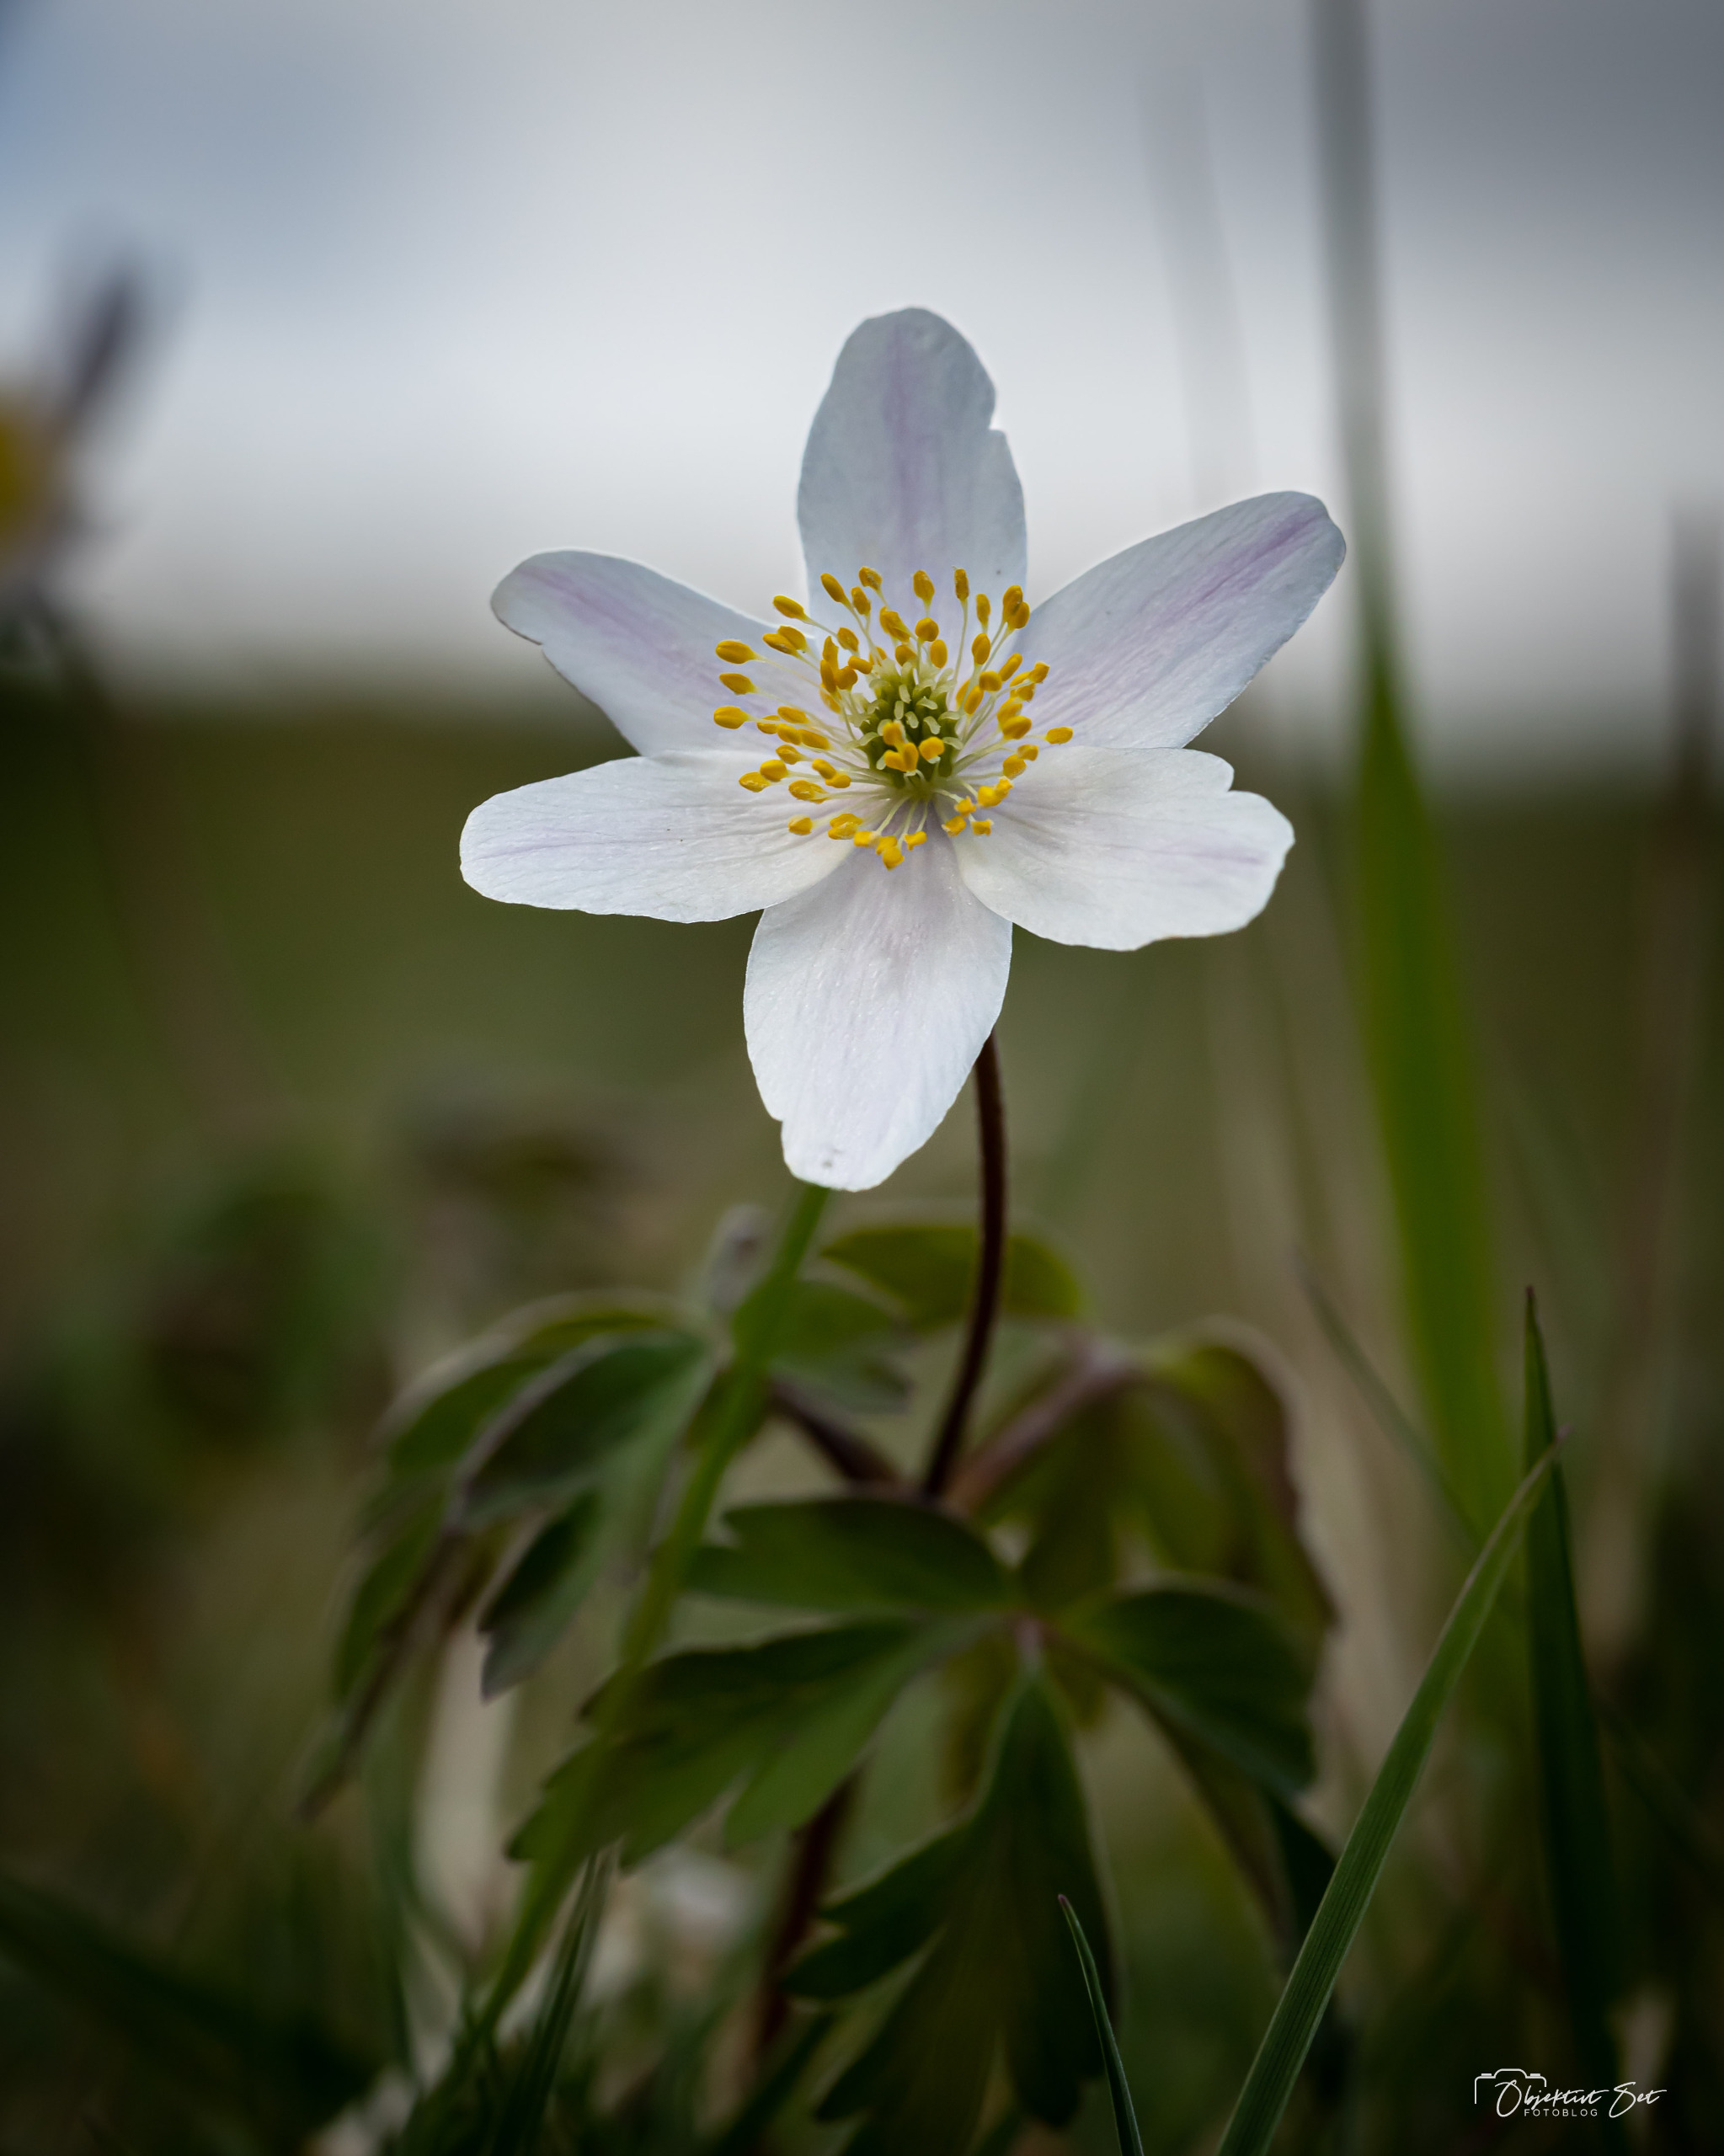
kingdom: Plantae
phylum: Tracheophyta
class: Magnoliopsida
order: Ranunculales
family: Ranunculaceae
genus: Anemone
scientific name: Anemone nemorosa
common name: Hvid anemone
